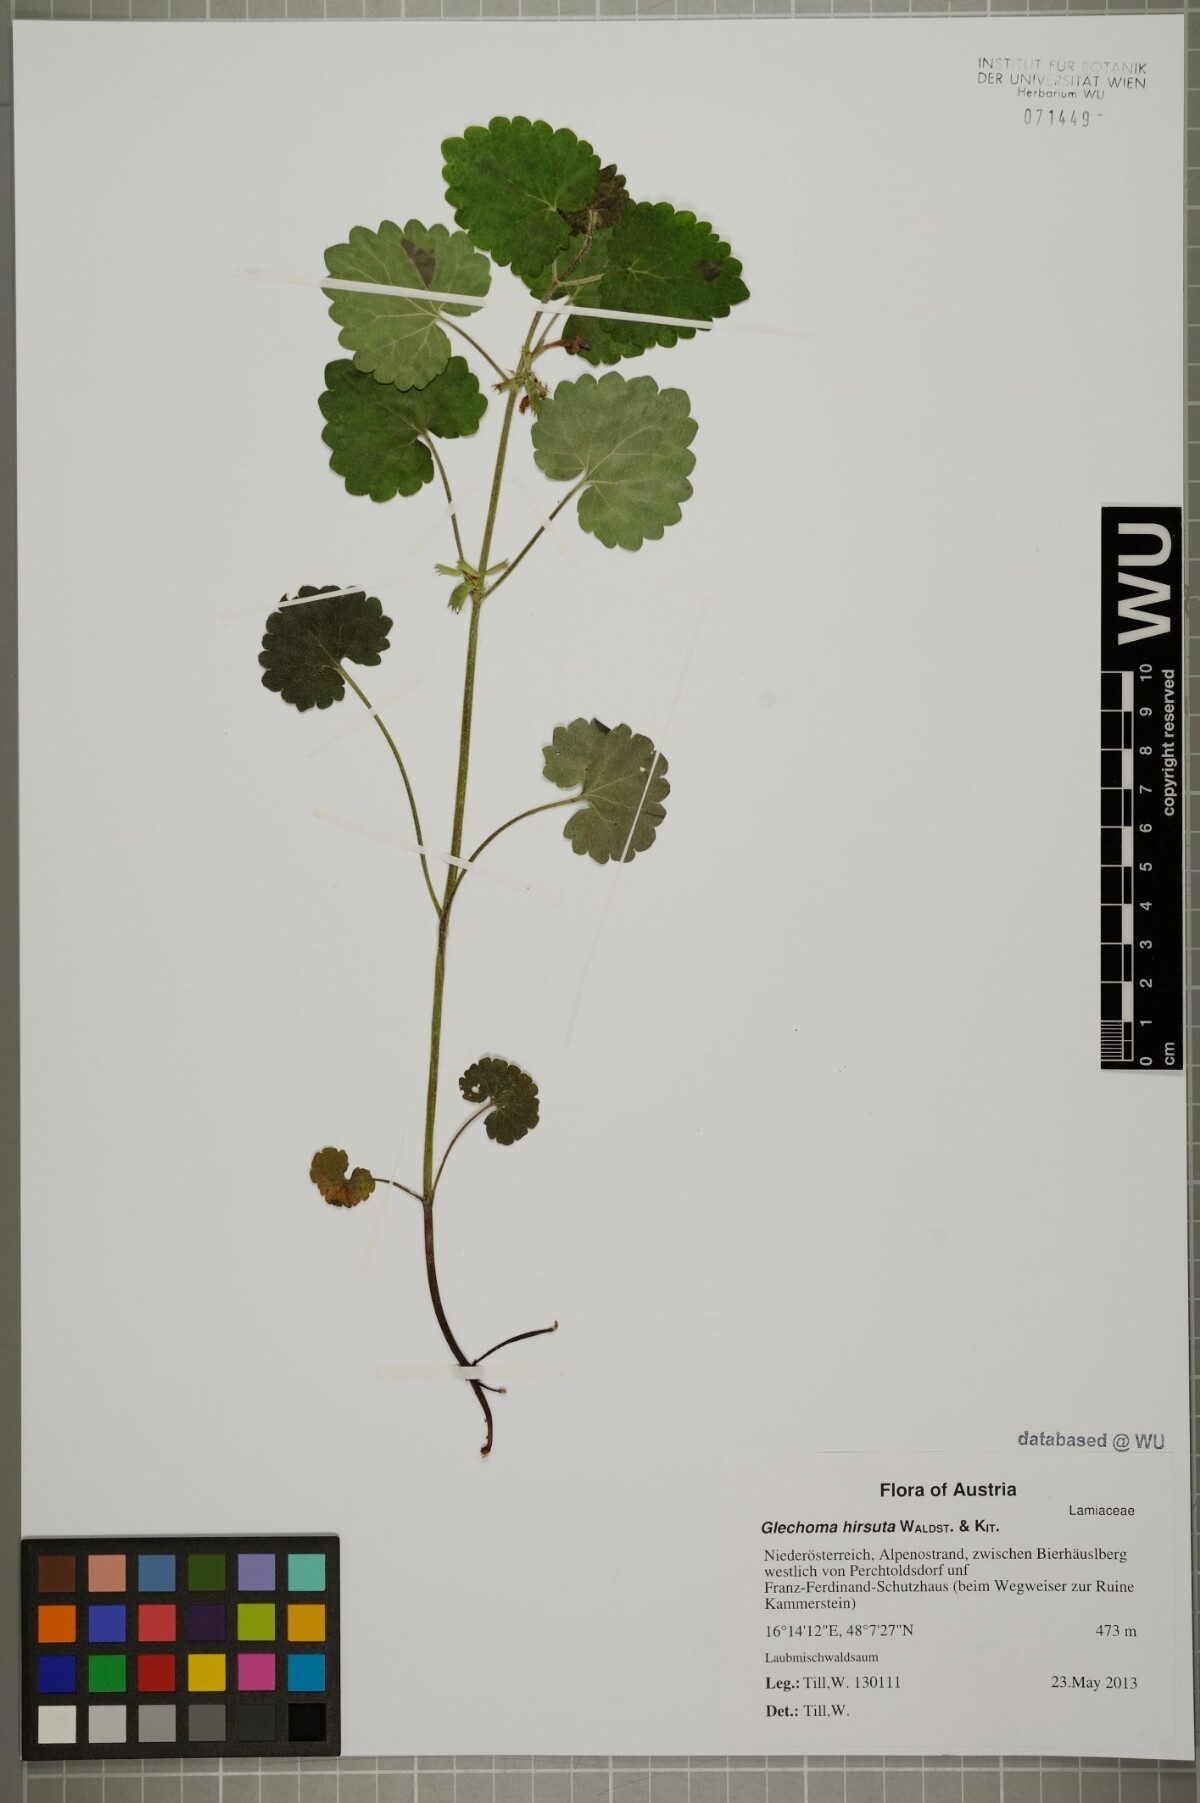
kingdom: Plantae
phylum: Tracheophyta
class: Magnoliopsida
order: Lamiales
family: Lamiaceae
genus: Glechoma
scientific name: Glechoma hirsuta
